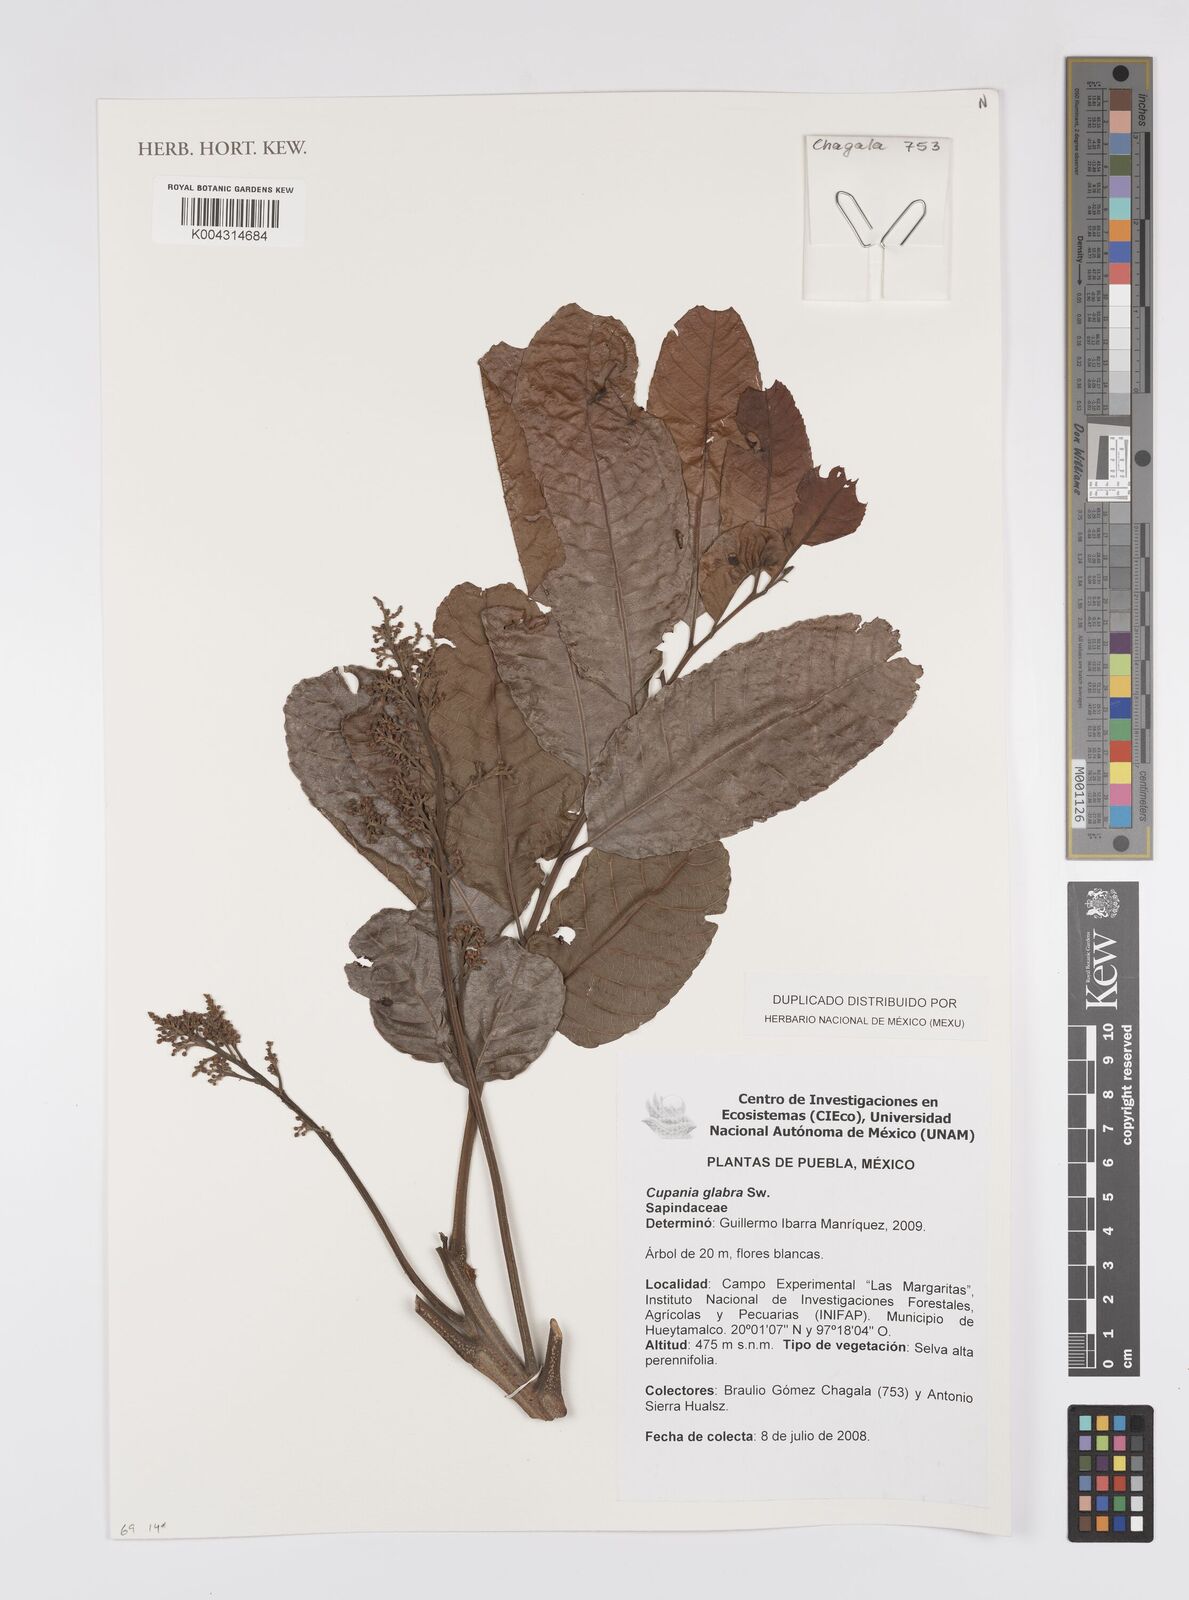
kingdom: Plantae
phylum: Tracheophyta
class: Magnoliopsida
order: Sapindales
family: Sapindaceae
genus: Cupania
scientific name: Cupania
